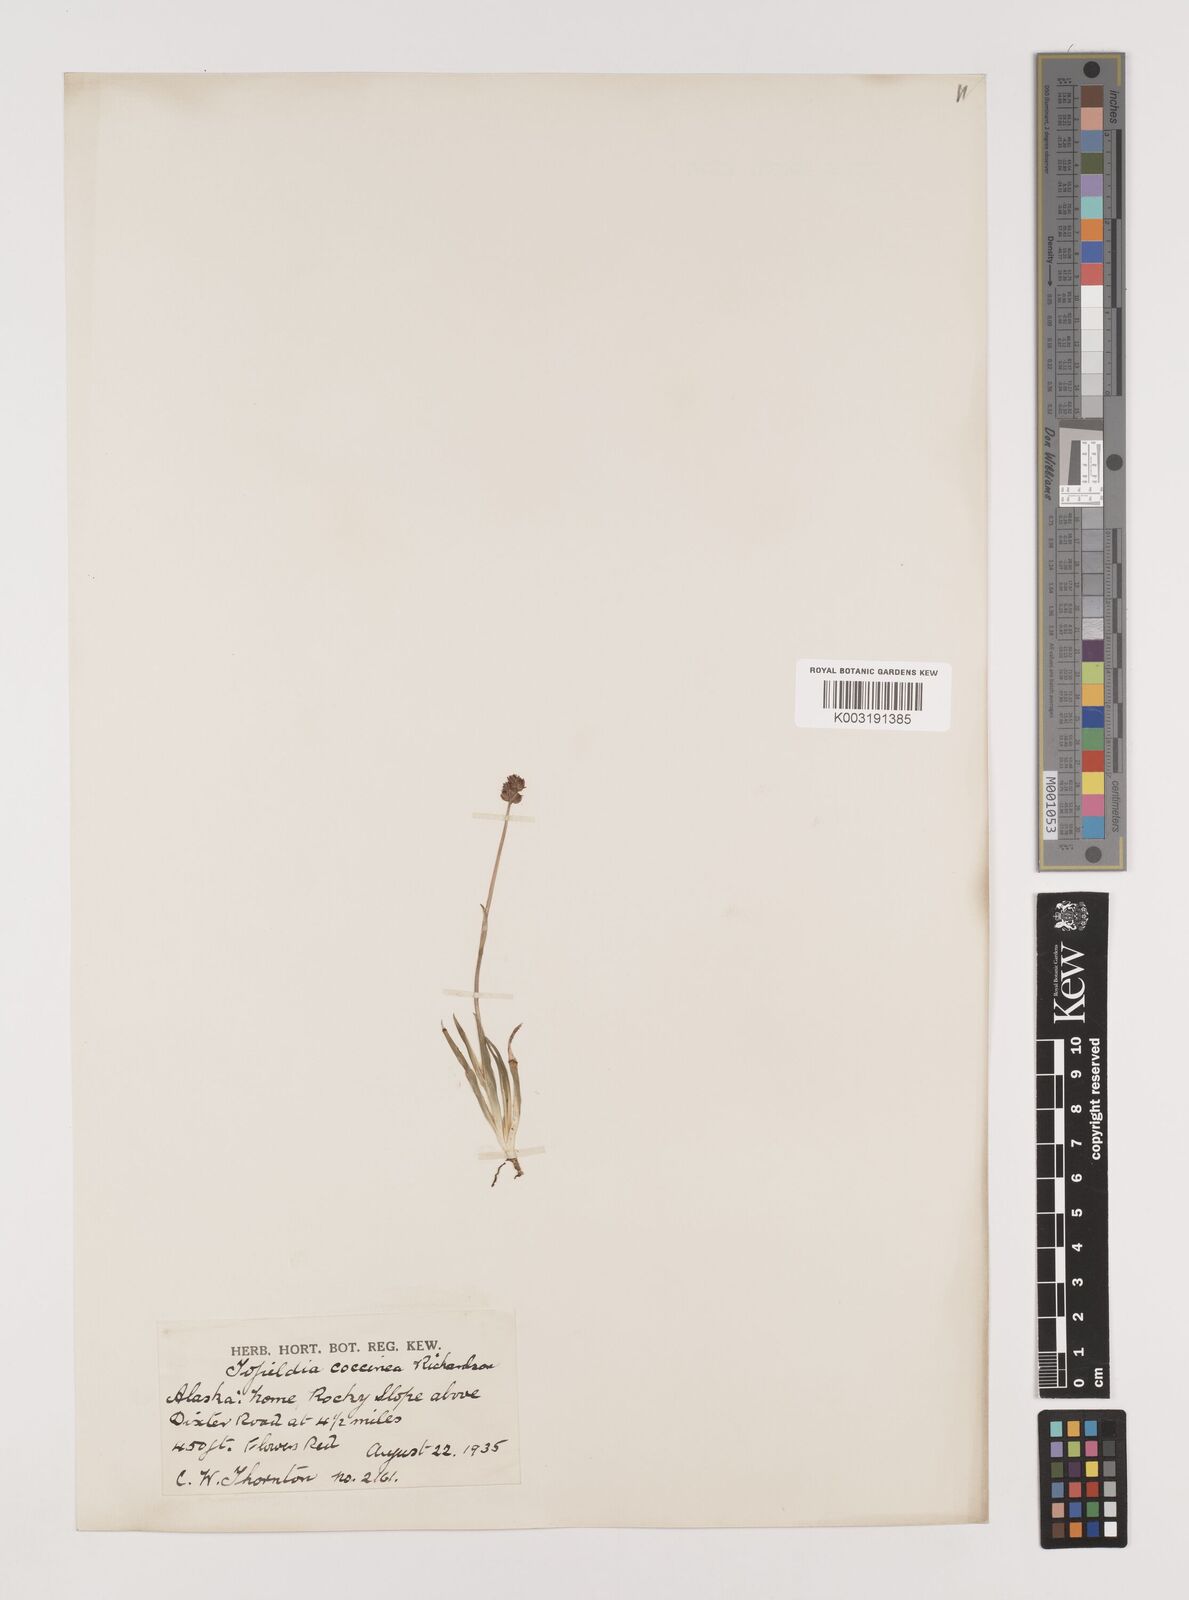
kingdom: Plantae
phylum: Tracheophyta
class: Liliopsida
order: Alismatales
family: Tofieldiaceae
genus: Tofieldia
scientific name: Tofieldia coccinea
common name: Northern false asphodel
